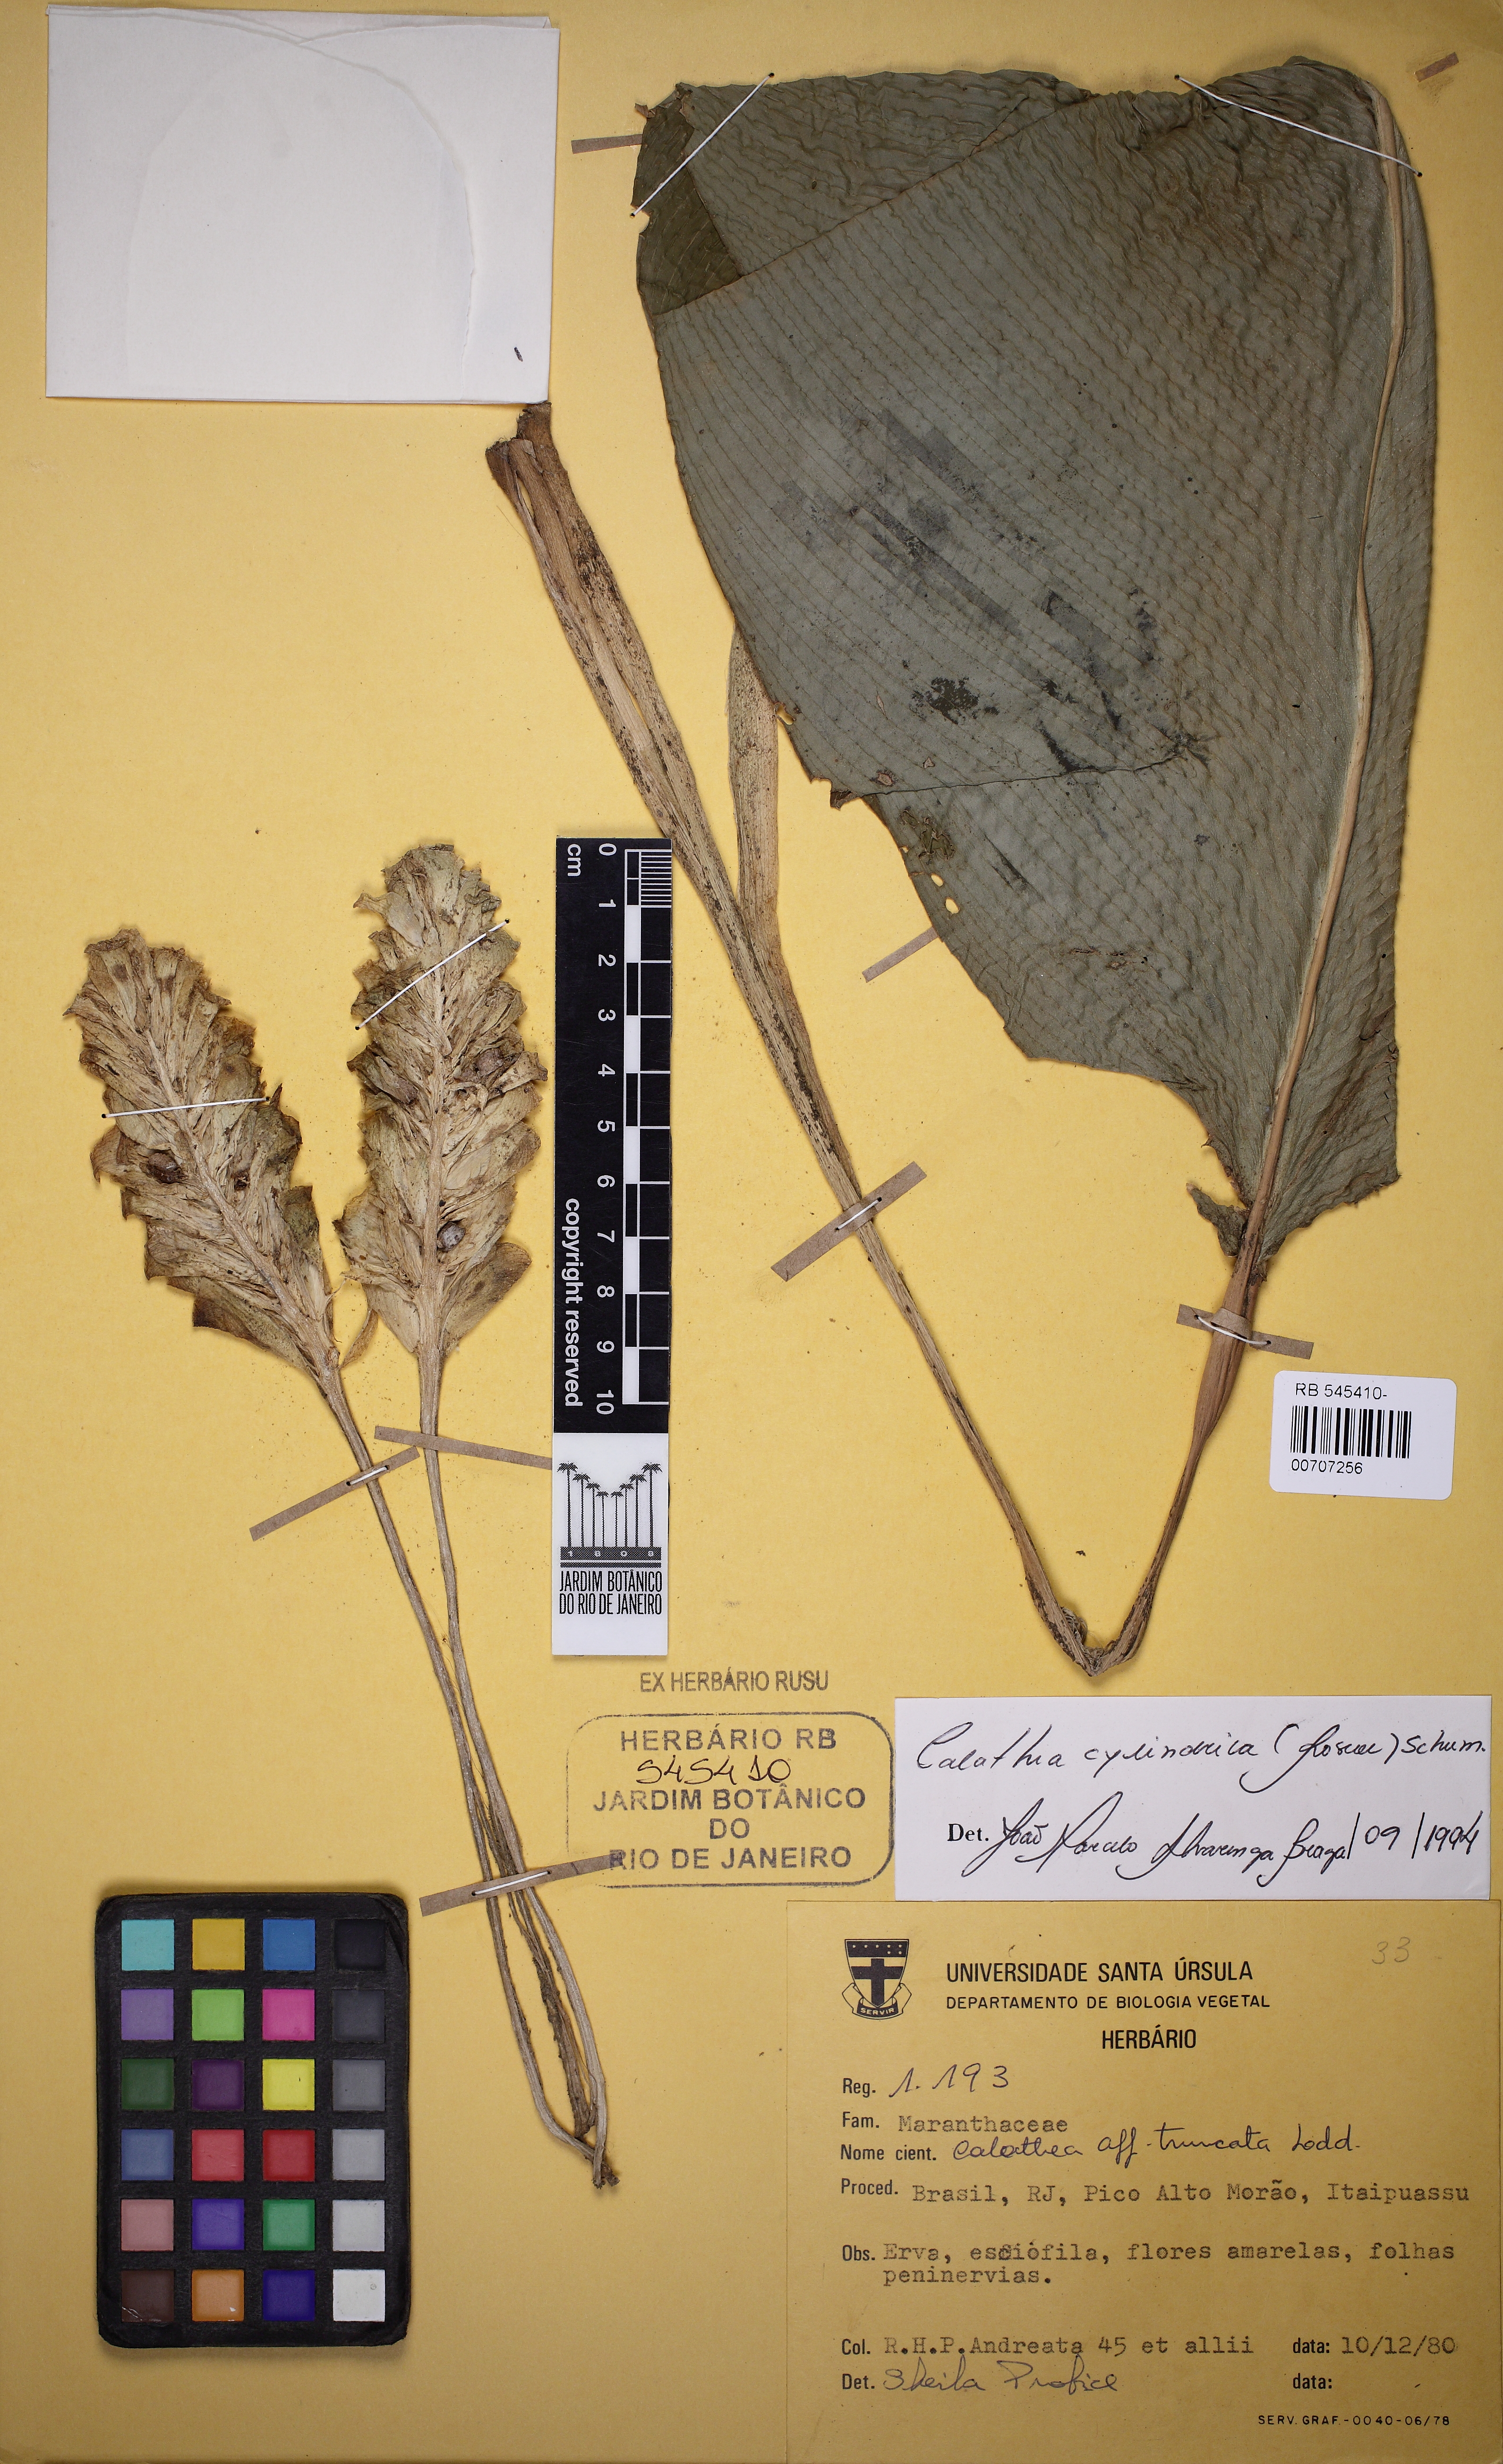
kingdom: Plantae
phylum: Tracheophyta
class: Liliopsida
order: Zingiberales
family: Marantaceae
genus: Goeppertia
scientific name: Goeppertia cylindrica
